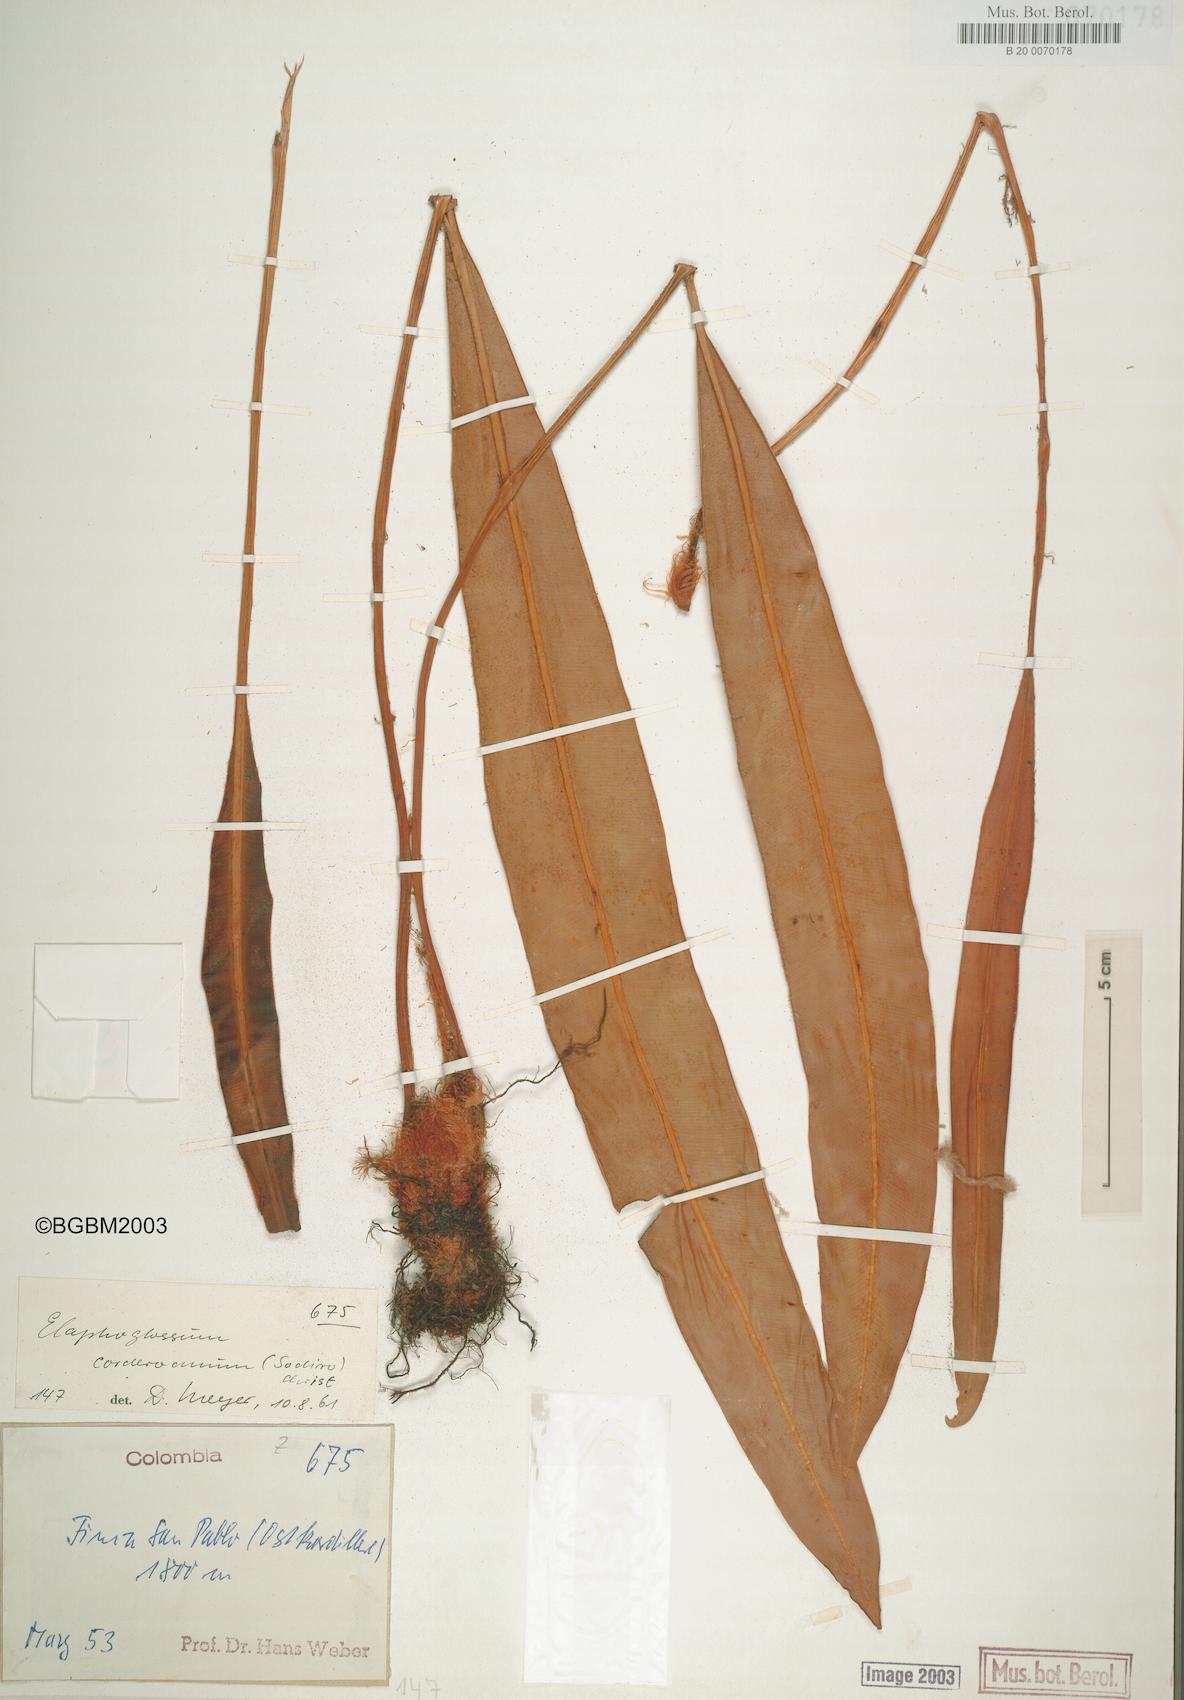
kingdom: Plantae
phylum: Tracheophyta
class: Polypodiopsida
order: Polypodiales
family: Dryopteridaceae
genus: Elaphoglossum
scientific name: Elaphoglossum corderoanum
